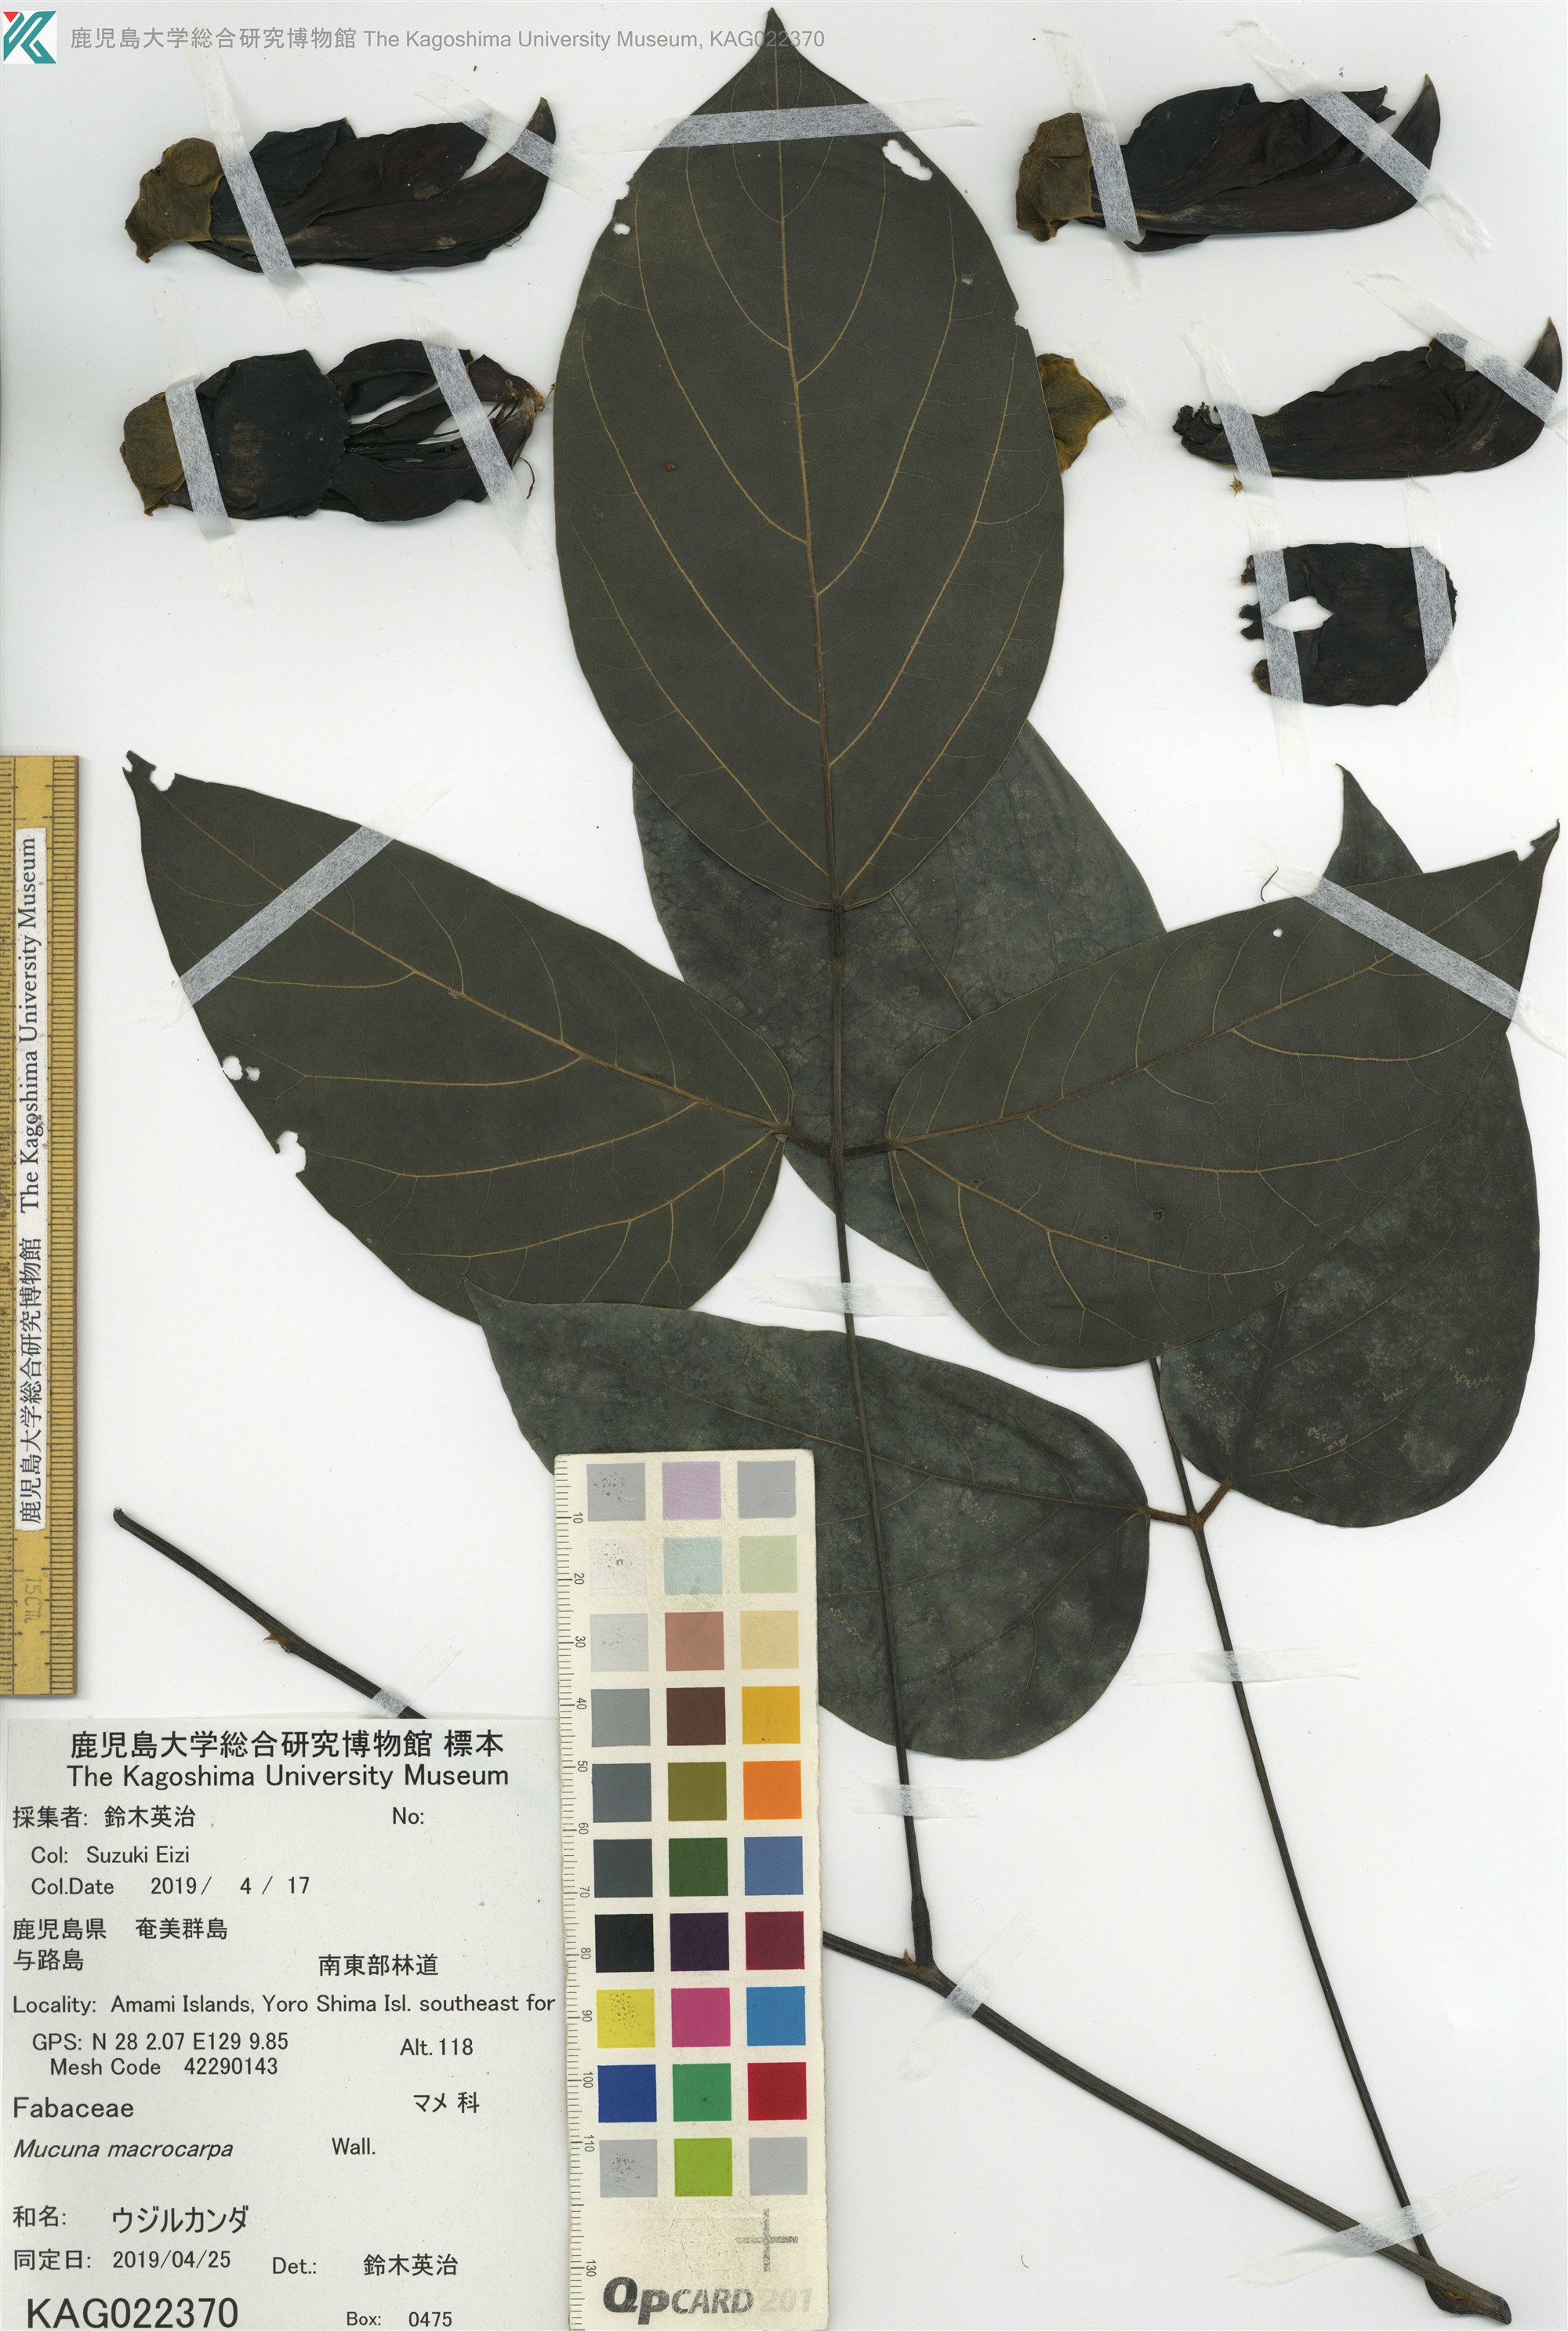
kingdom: Plantae
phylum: Tracheophyta
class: Magnoliopsida
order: Fabales
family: Fabaceae
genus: Mucuna
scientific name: Mucuna macrocarpa
